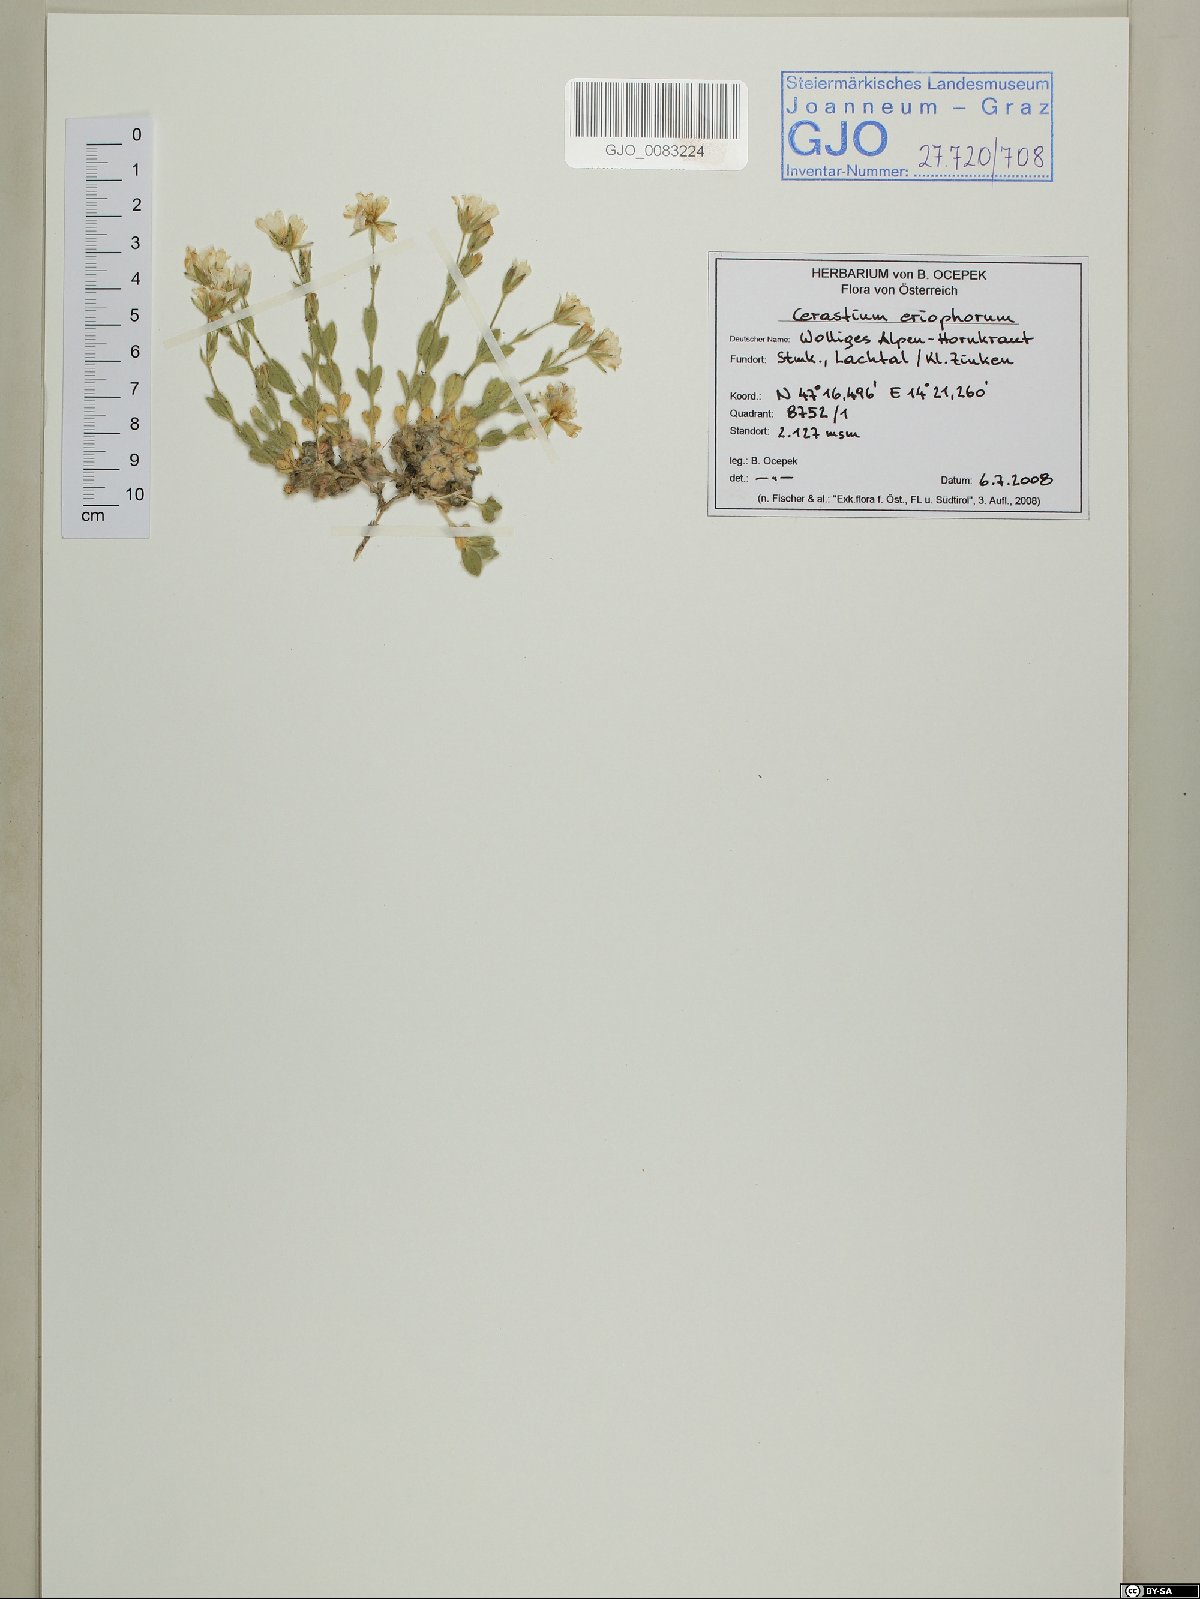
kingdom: Plantae
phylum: Tracheophyta
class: Magnoliopsida
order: Caryophyllales
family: Caryophyllaceae
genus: Cerastium
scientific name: Cerastium eriophorum
